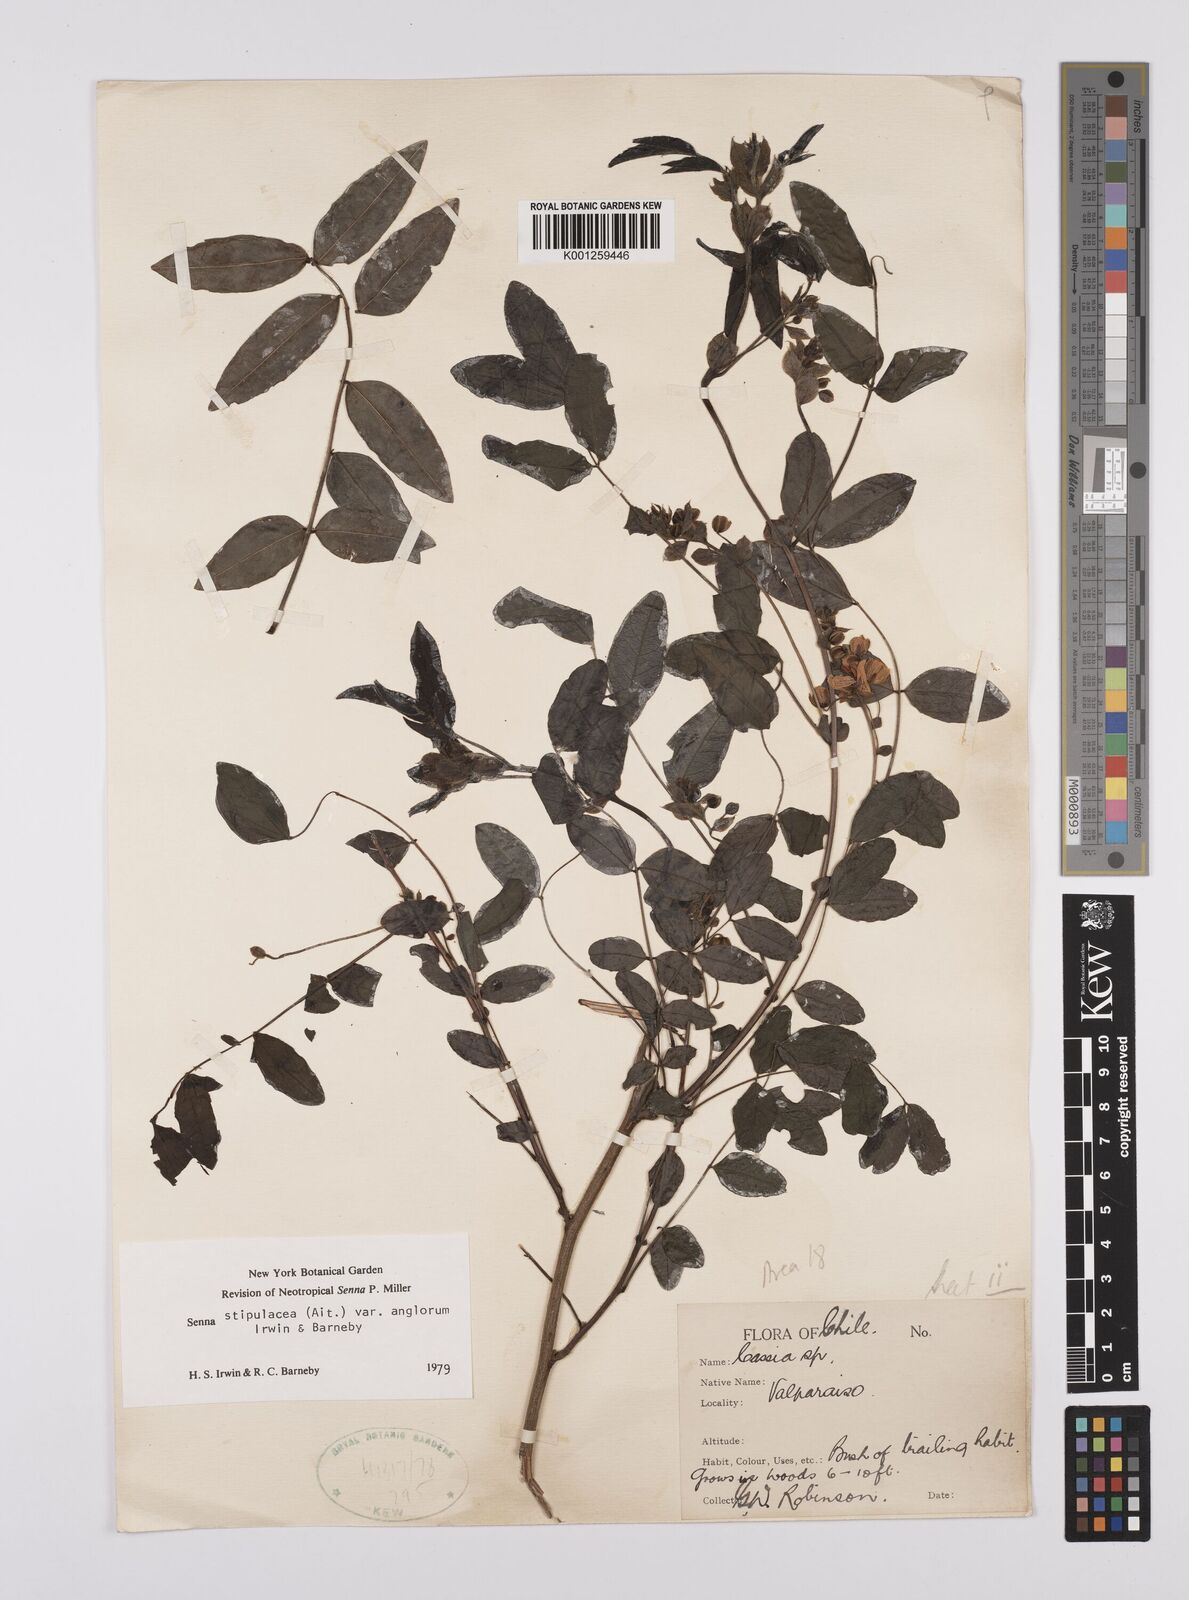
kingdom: Plantae
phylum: Tracheophyta
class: Magnoliopsida
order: Fabales
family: Fabaceae
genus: Senna
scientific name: Senna stipulacea
